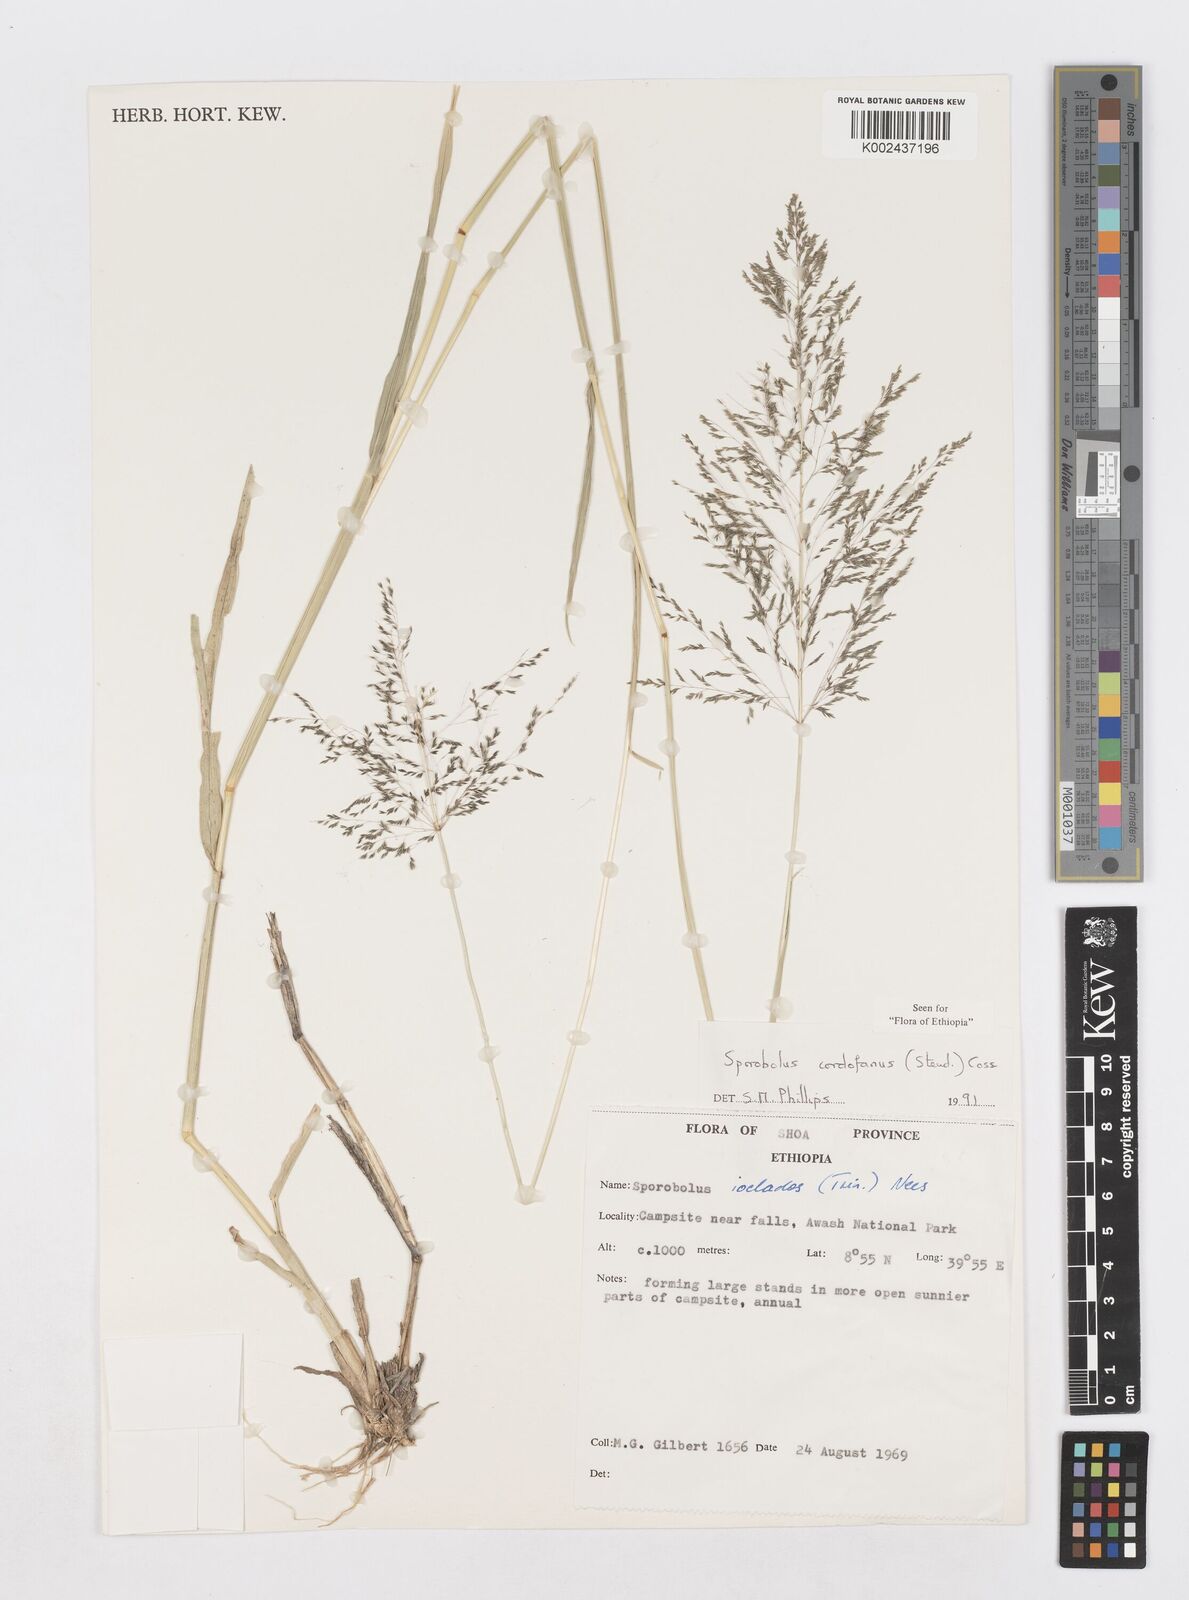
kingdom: Plantae
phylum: Tracheophyta
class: Liliopsida
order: Poales
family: Poaceae
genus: Sporobolus
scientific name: Sporobolus cordofanus
